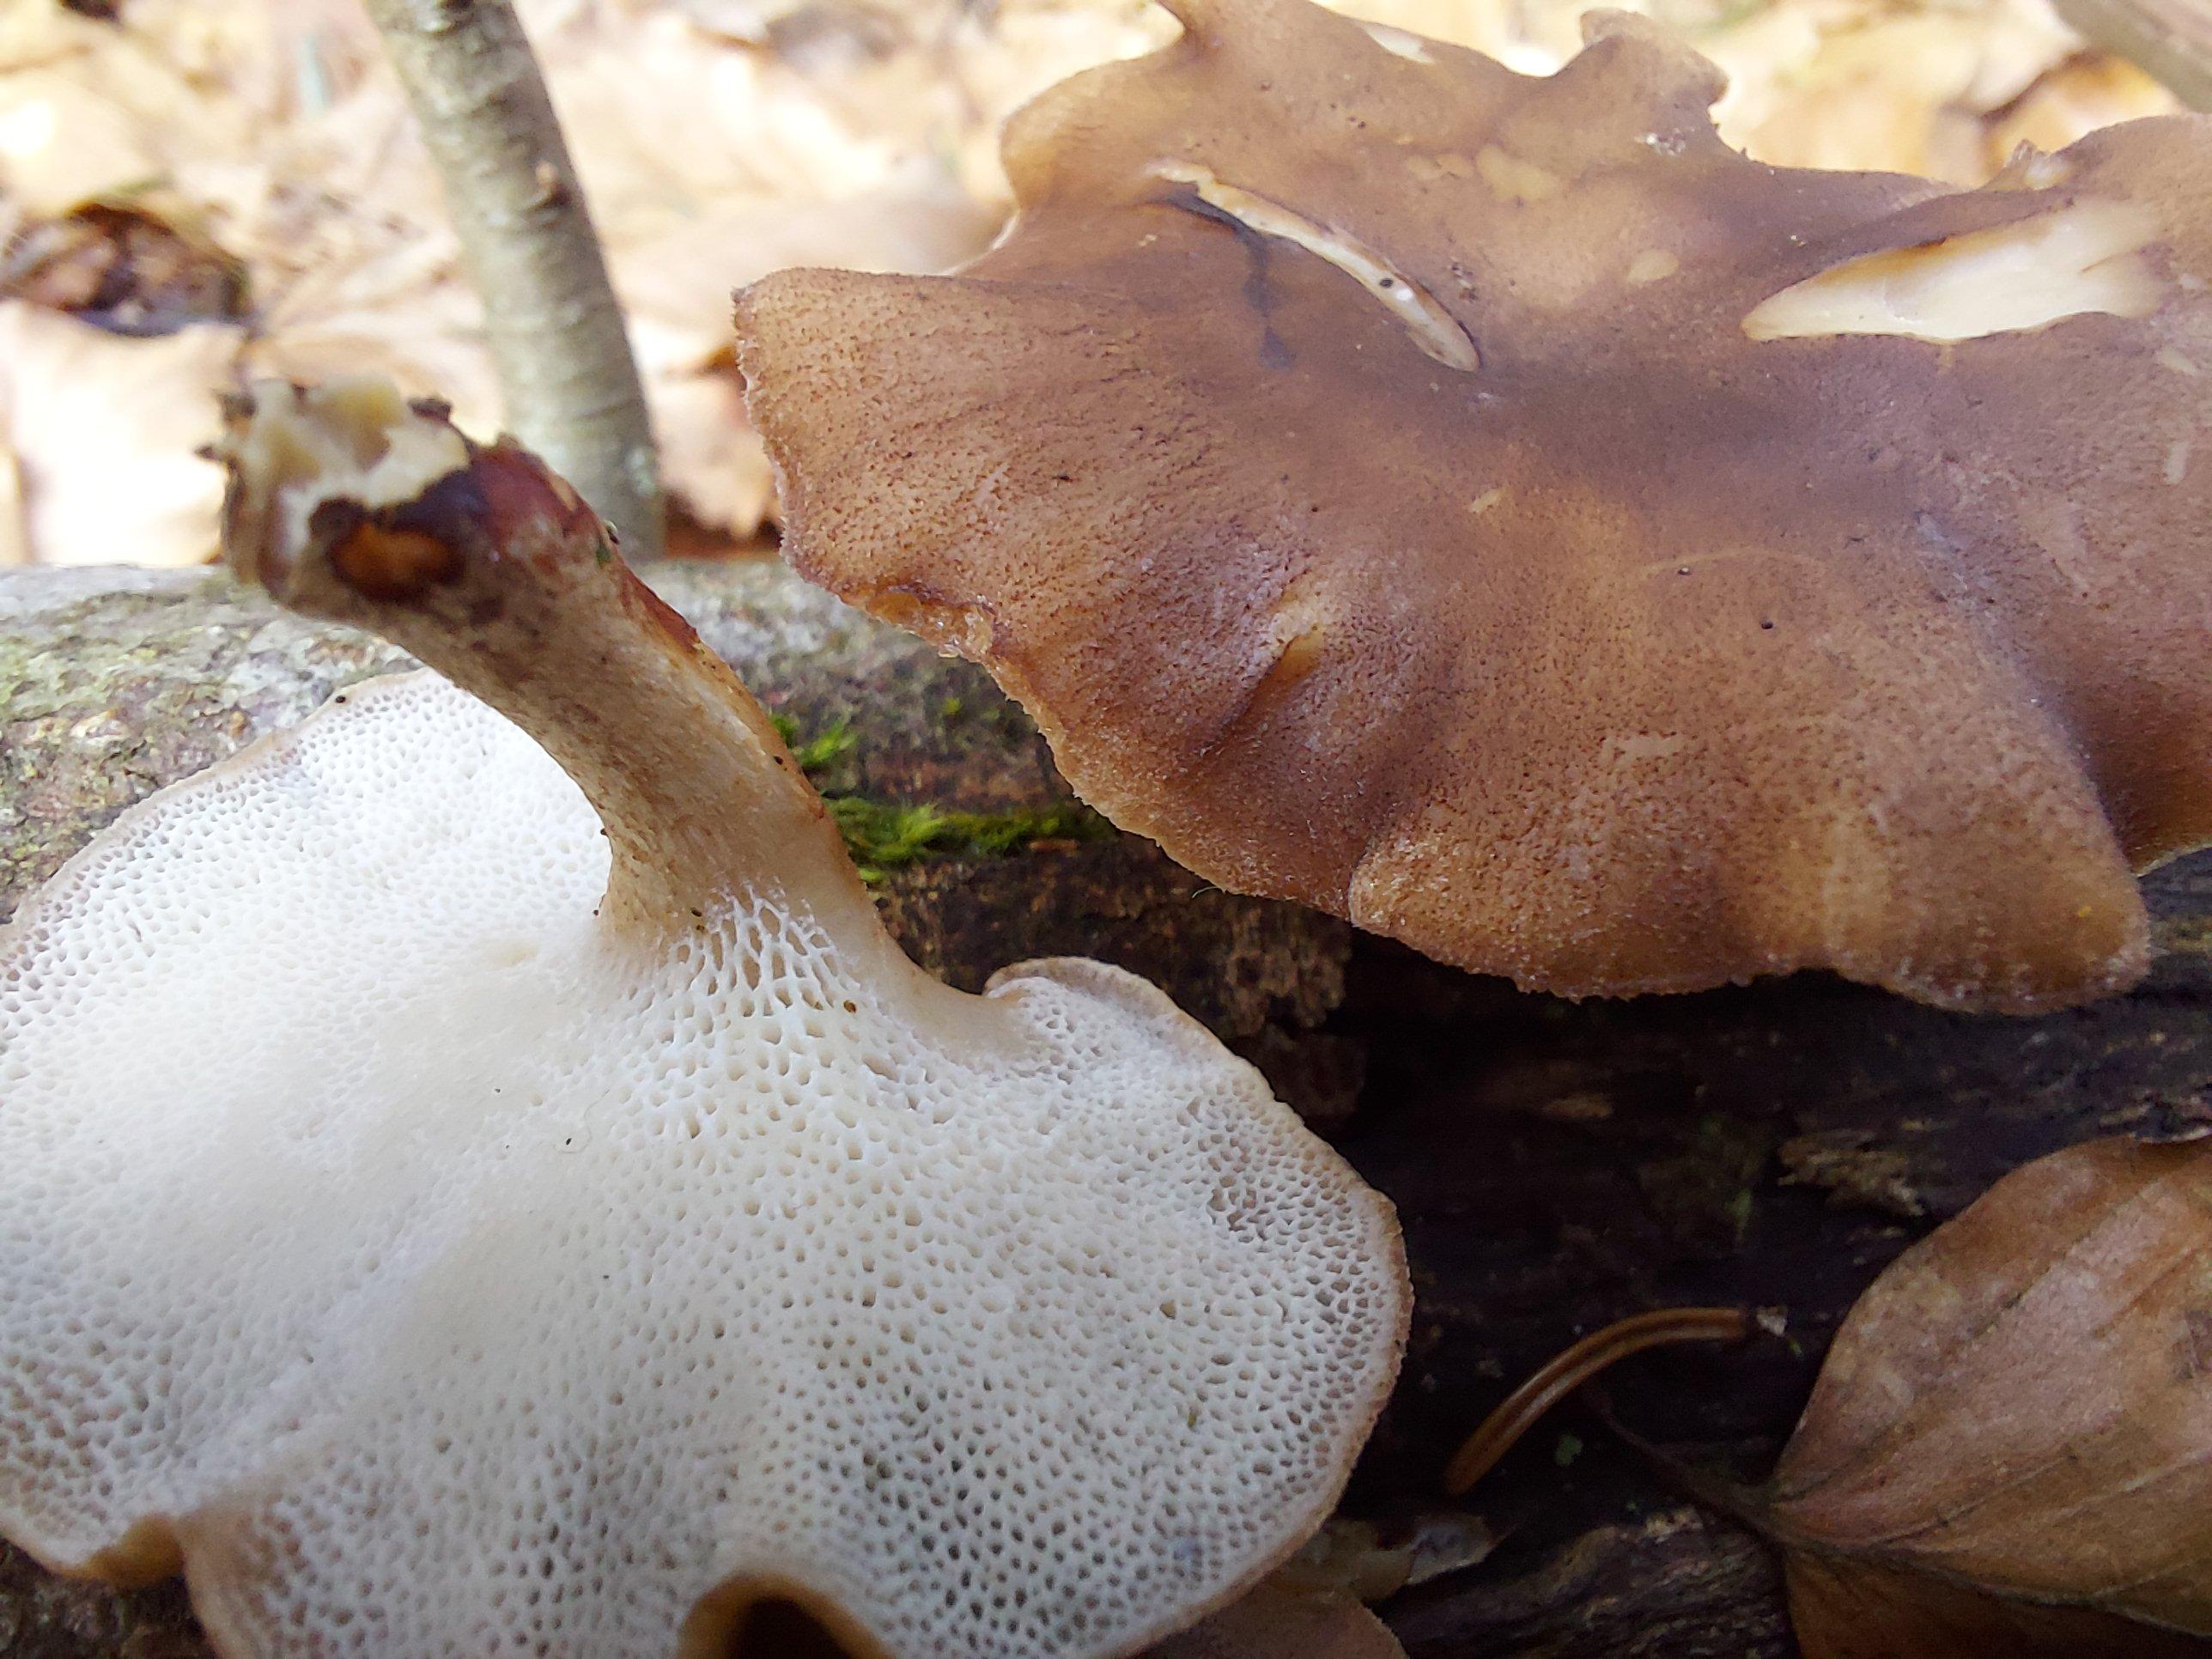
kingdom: Fungi
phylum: Basidiomycota
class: Agaricomycetes
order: Polyporales
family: Polyporaceae
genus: Lentinus
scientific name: Lentinus brumalis
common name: vinter-stilkporesvamp
